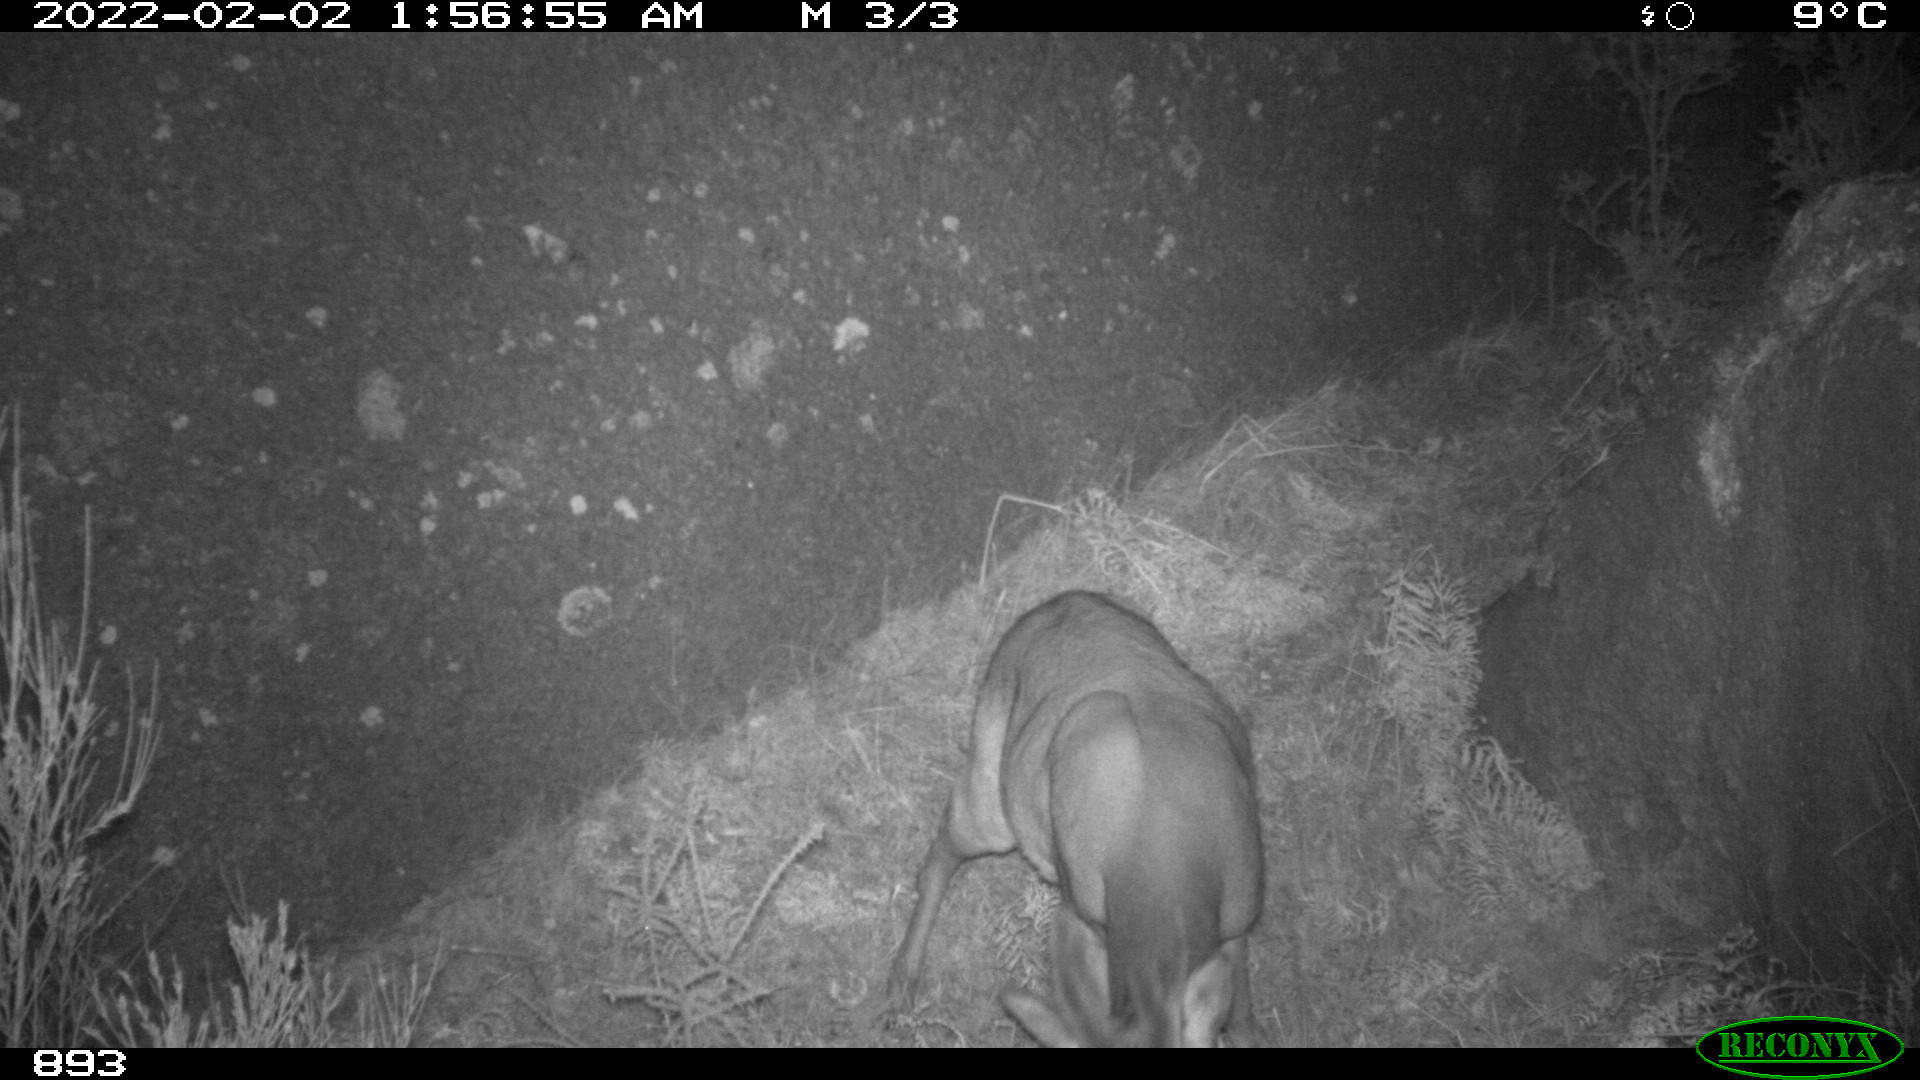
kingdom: Animalia
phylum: Chordata
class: Mammalia
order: Artiodactyla
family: Cervidae
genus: Capreolus
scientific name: Capreolus capreolus
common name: Western roe deer
